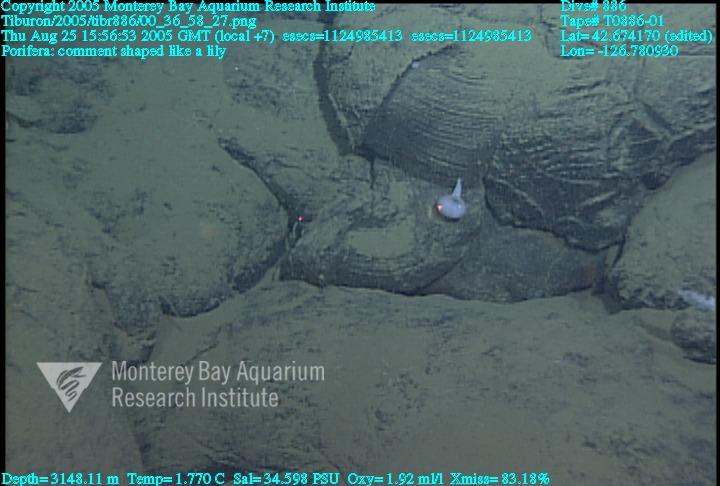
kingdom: Animalia
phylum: Porifera
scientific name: Porifera
